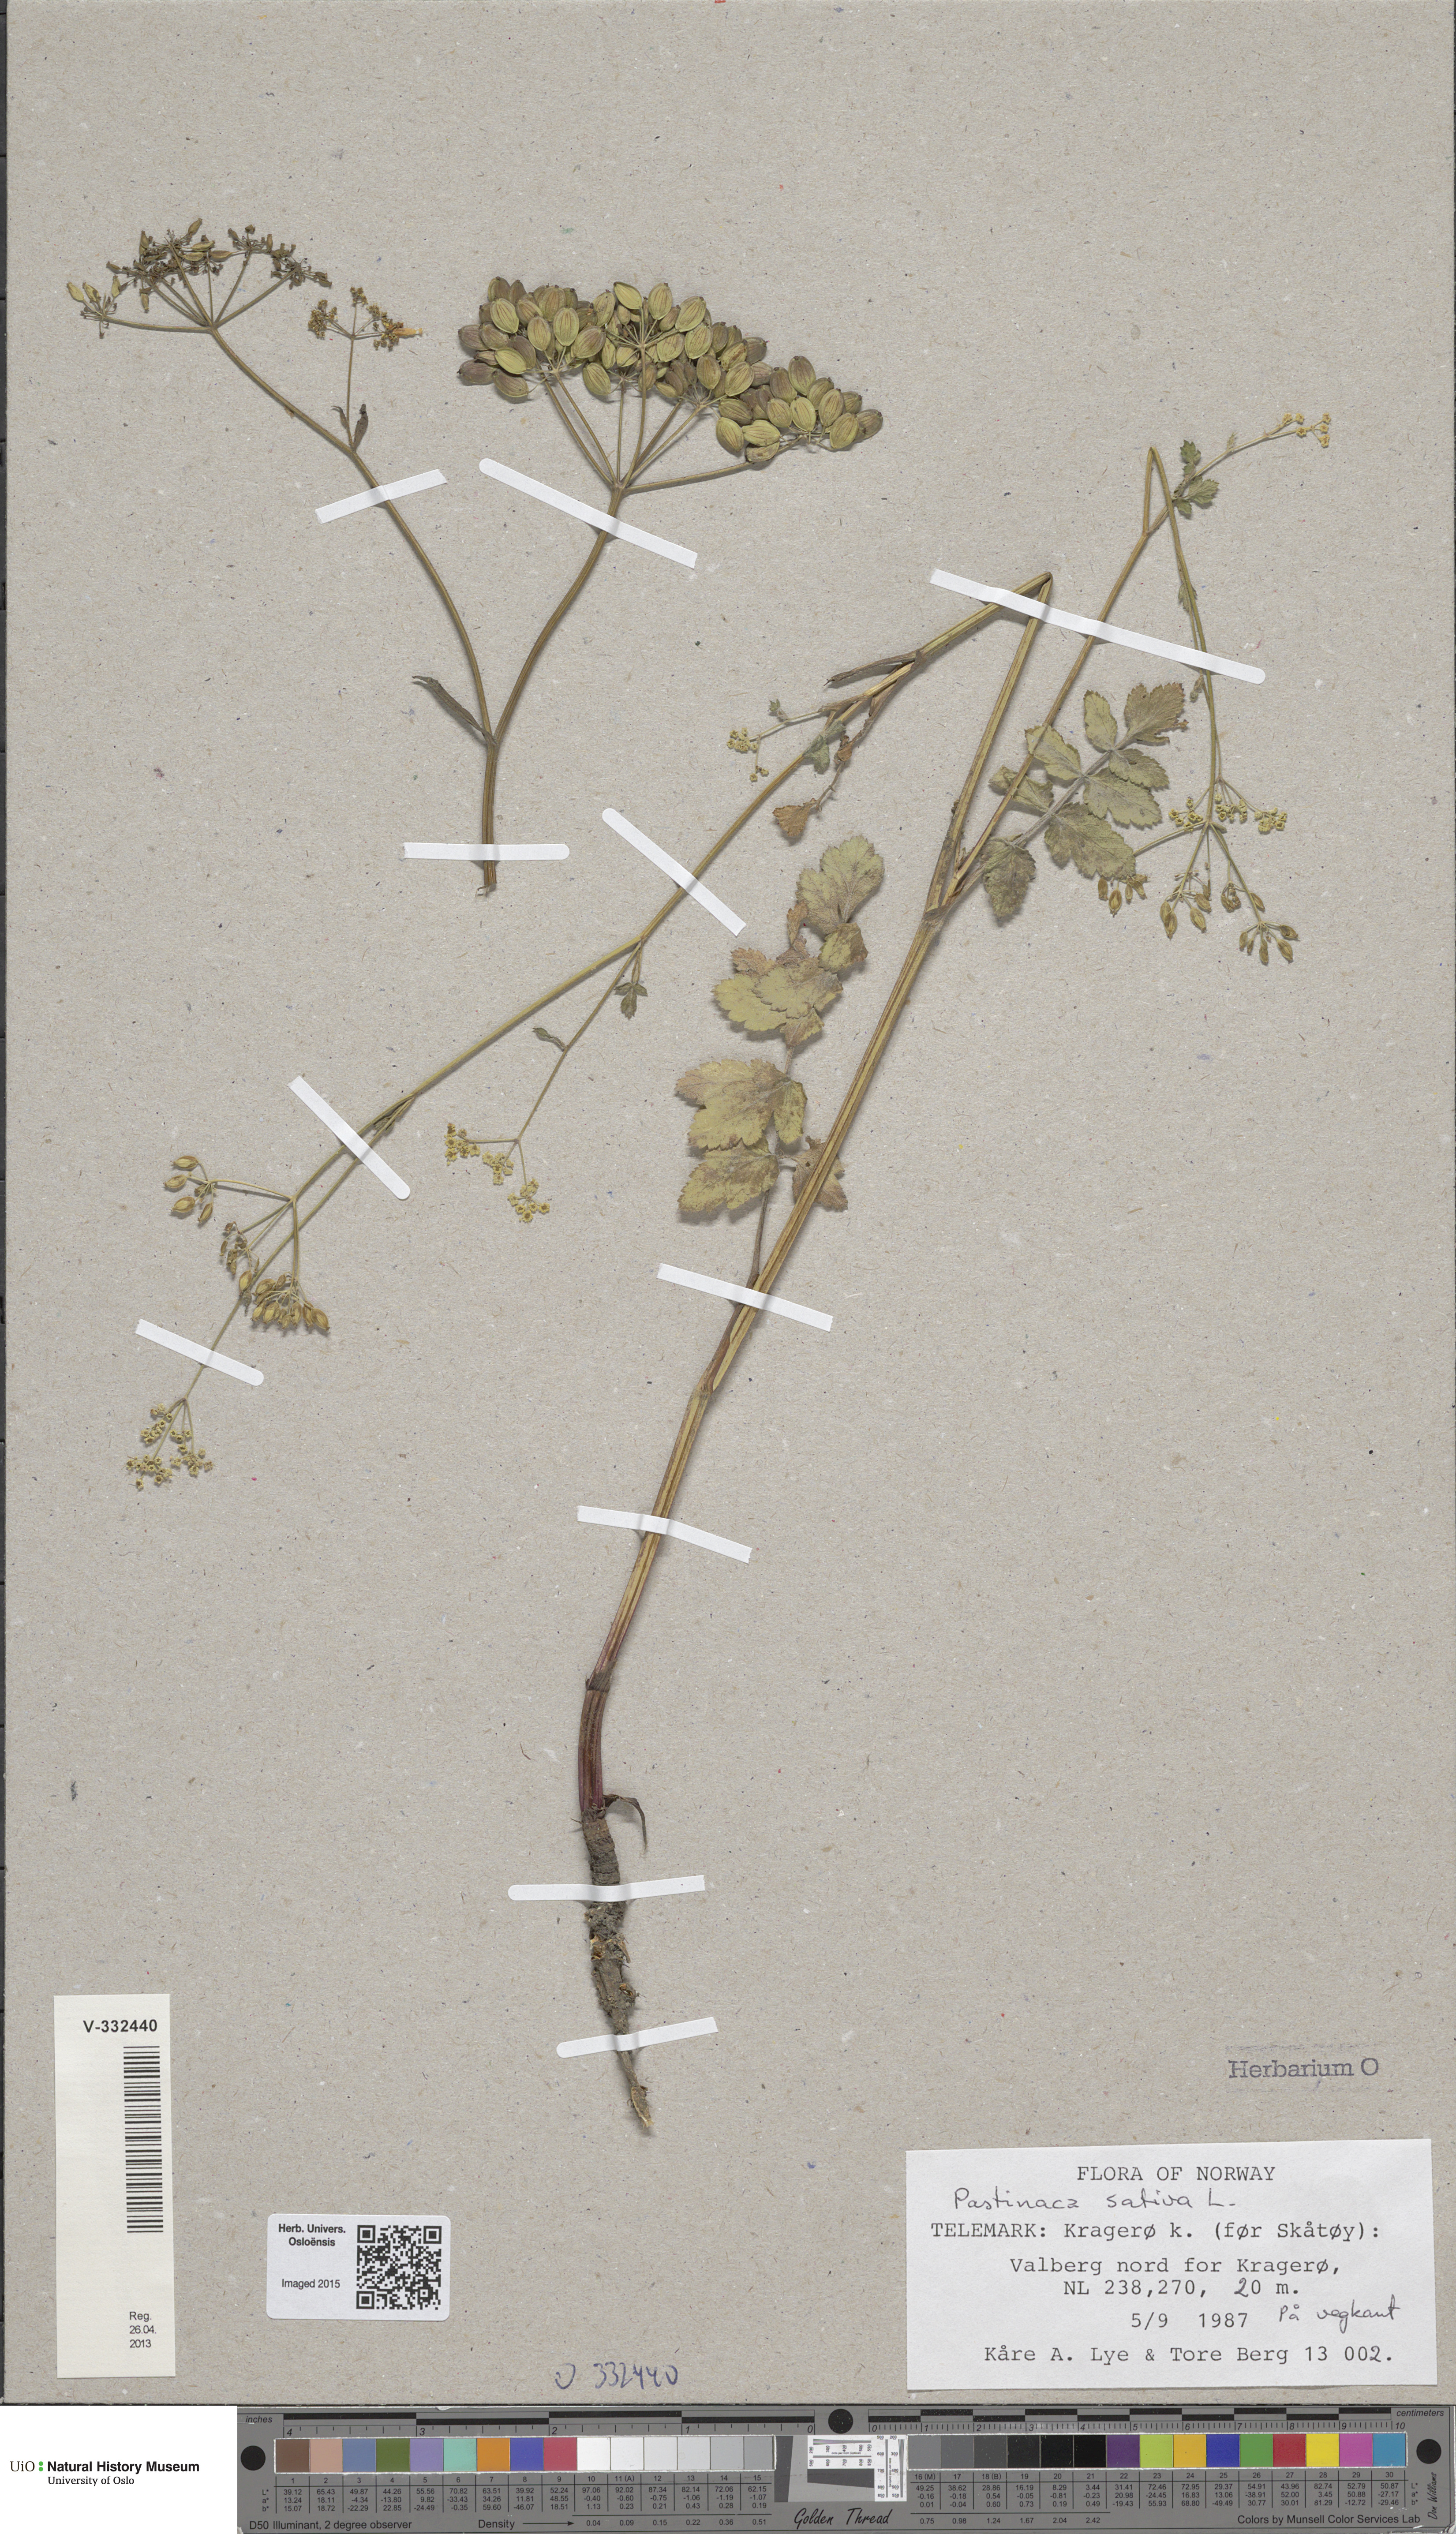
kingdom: Plantae
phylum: Tracheophyta
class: Magnoliopsida
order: Apiales
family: Apiaceae
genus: Pastinaca
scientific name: Pastinaca sativa
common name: Wild parsnip
